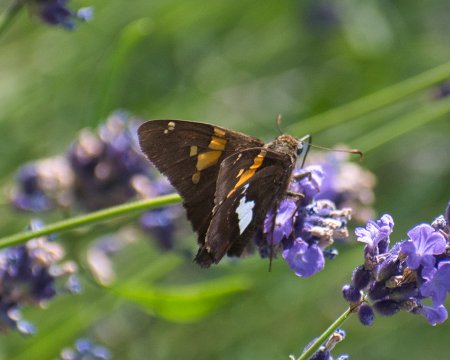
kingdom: Animalia
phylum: Arthropoda
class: Insecta
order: Lepidoptera
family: Hesperiidae
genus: Epargyreus
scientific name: Epargyreus clarus
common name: Silver-spotted Skipper
